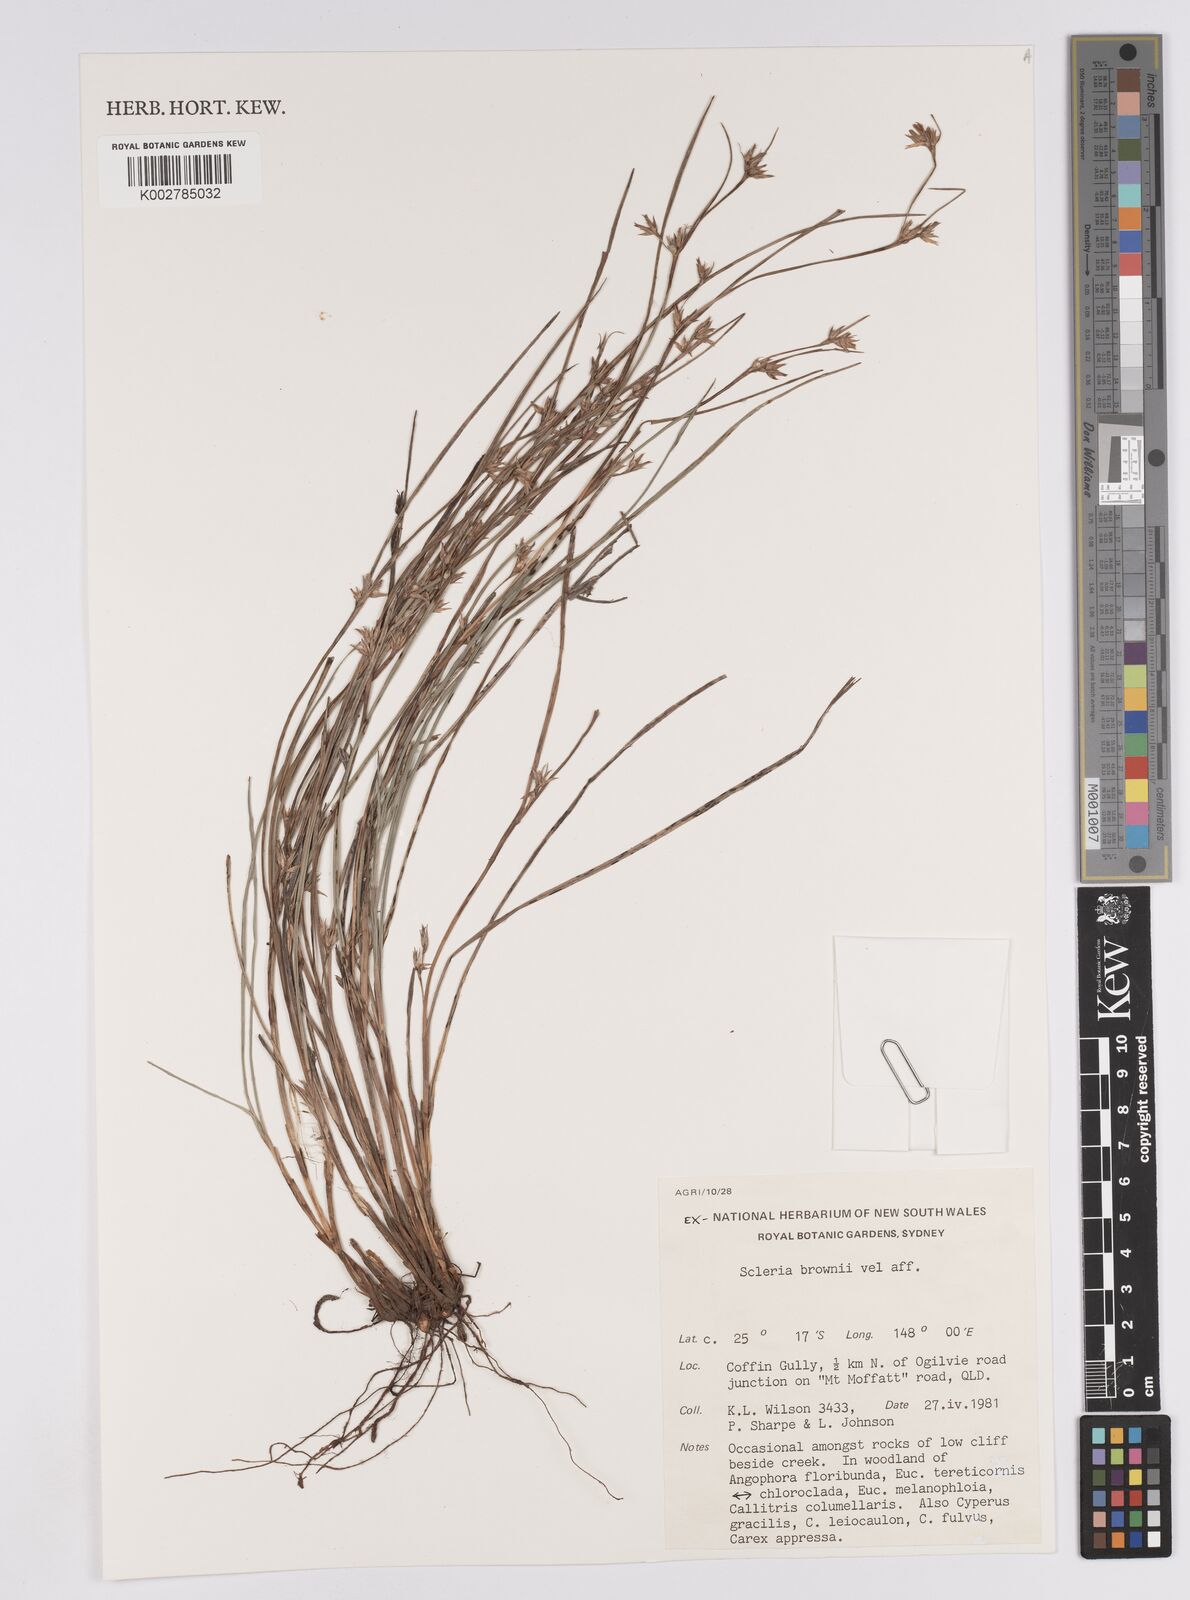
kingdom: Plantae
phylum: Tracheophyta
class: Liliopsida
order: Poales
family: Cyperaceae
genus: Scleria
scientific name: Scleria brownii
